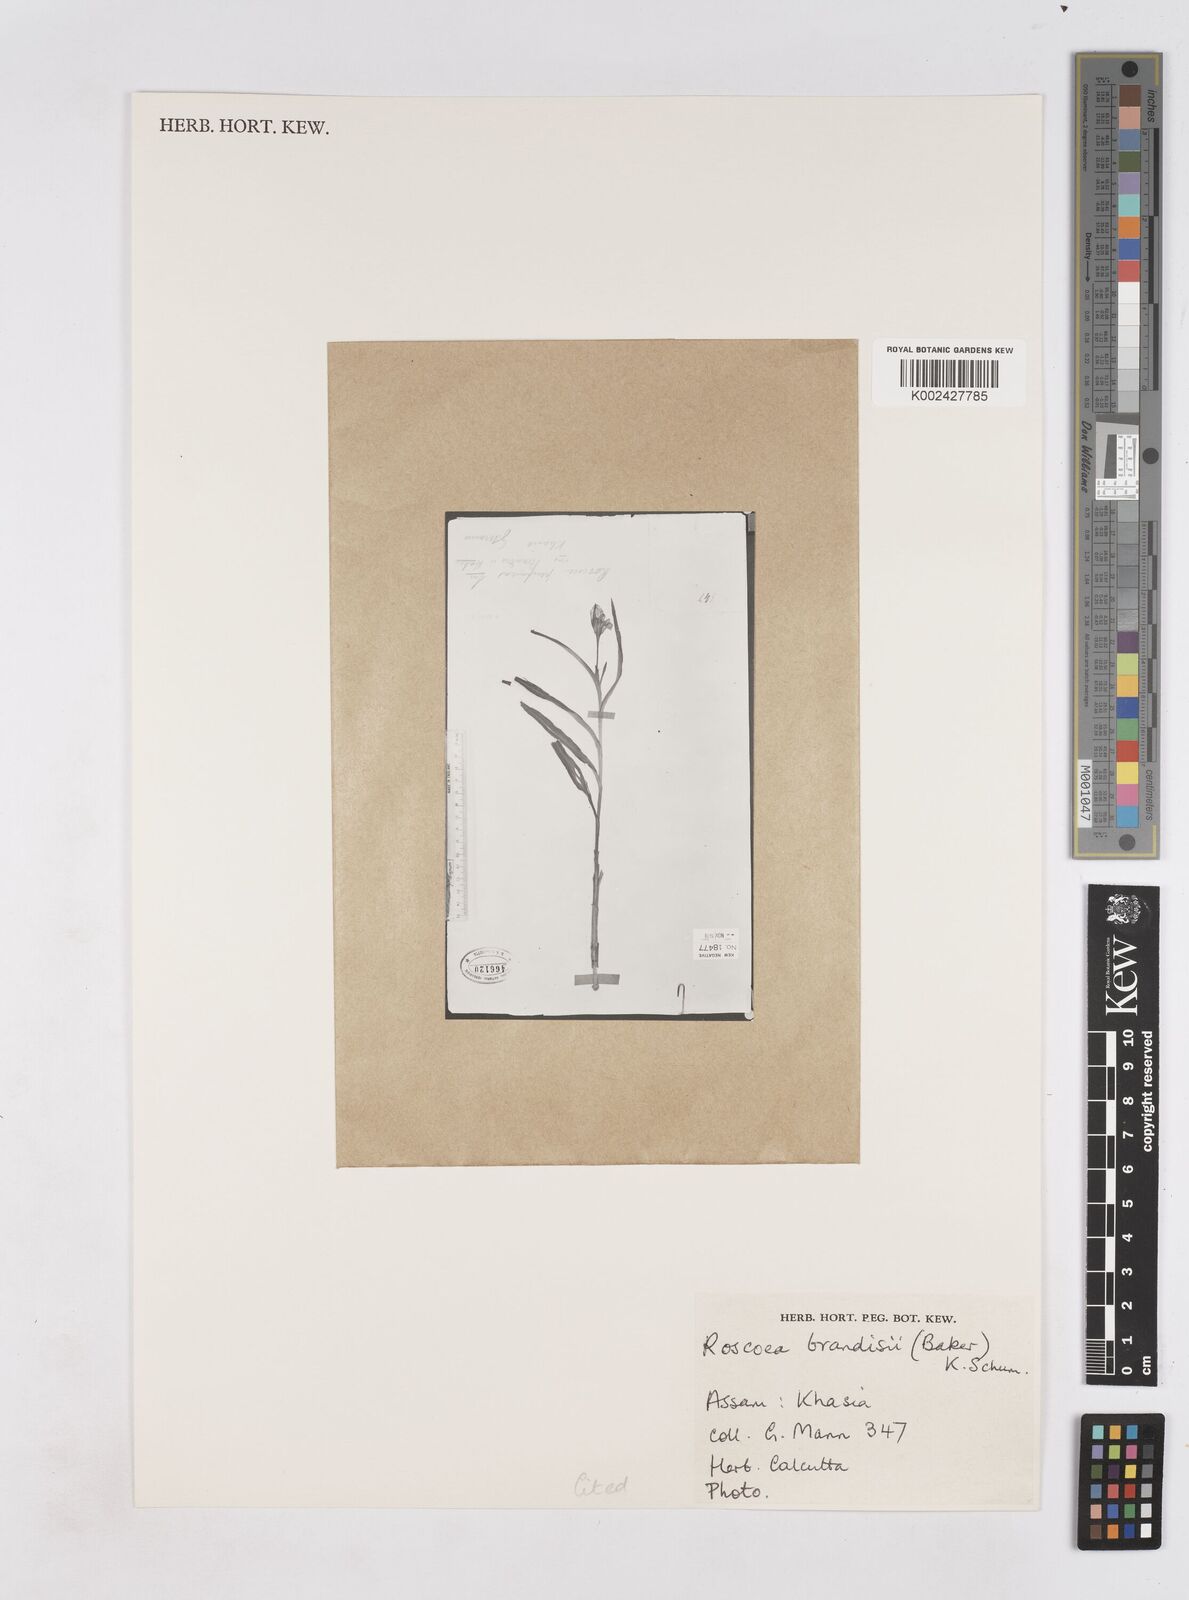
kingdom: Plantae
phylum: Tracheophyta
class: Liliopsida
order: Zingiberales
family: Zingiberaceae
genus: Roscoea
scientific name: Roscoea brandisii
